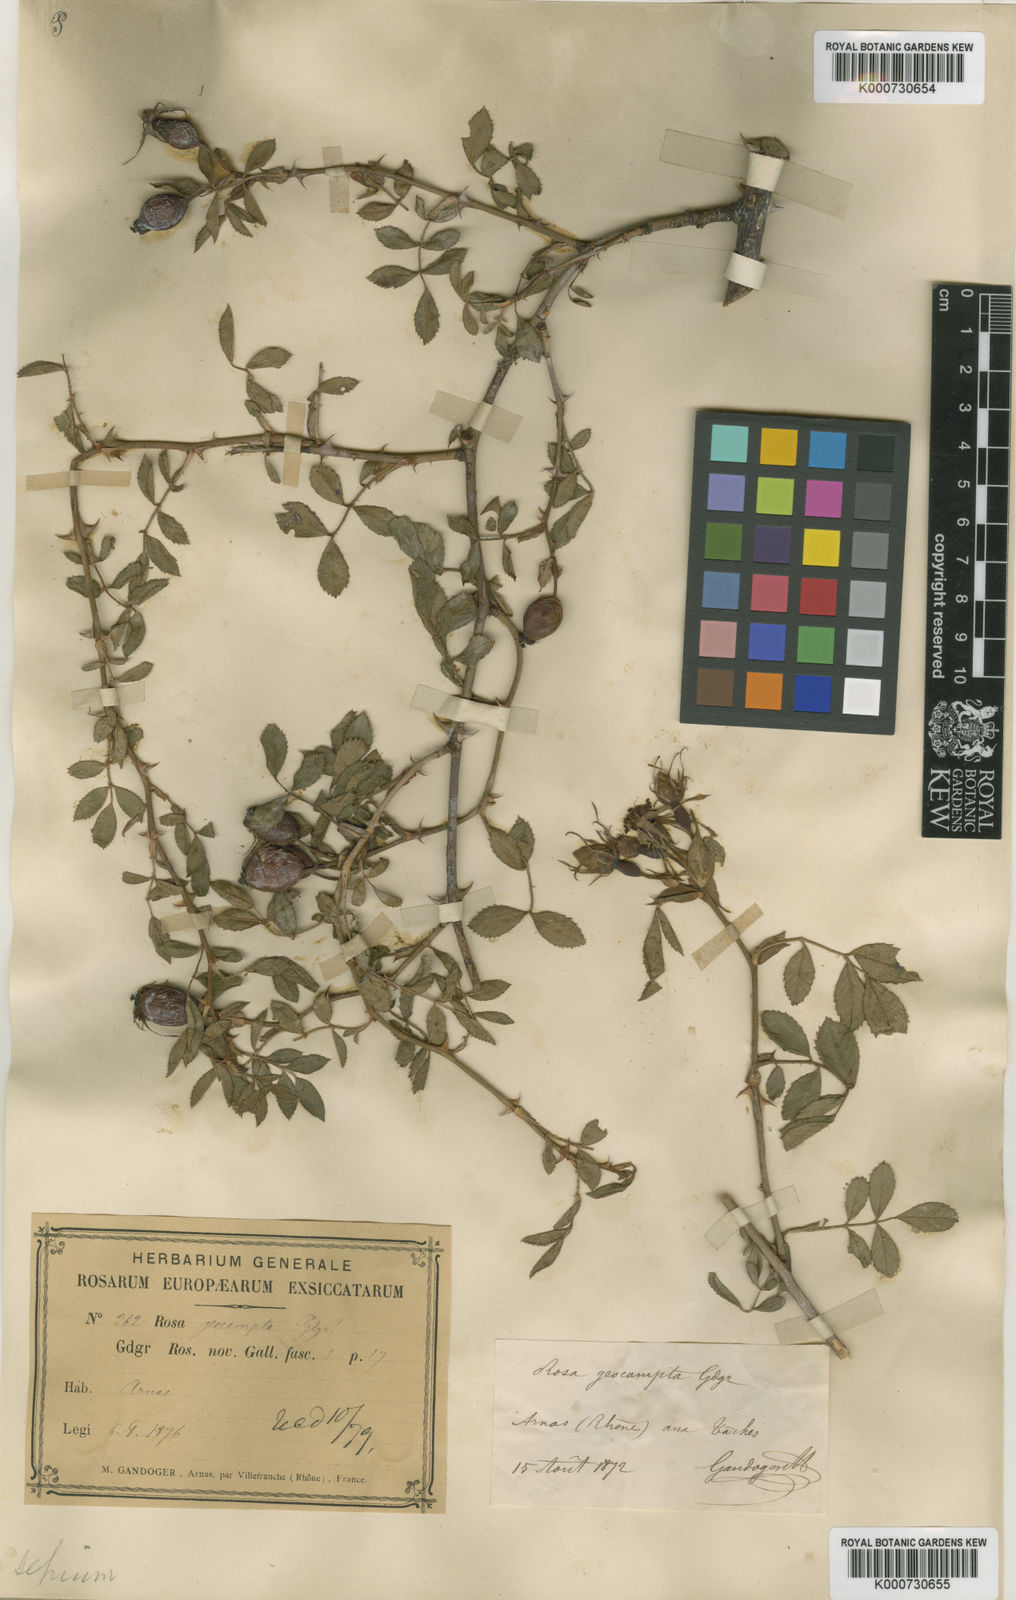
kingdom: Plantae
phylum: Tracheophyta
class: Magnoliopsida
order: Rosales
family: Rosaceae
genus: Rosa
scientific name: Rosa agrestis
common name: Fieldbriar
